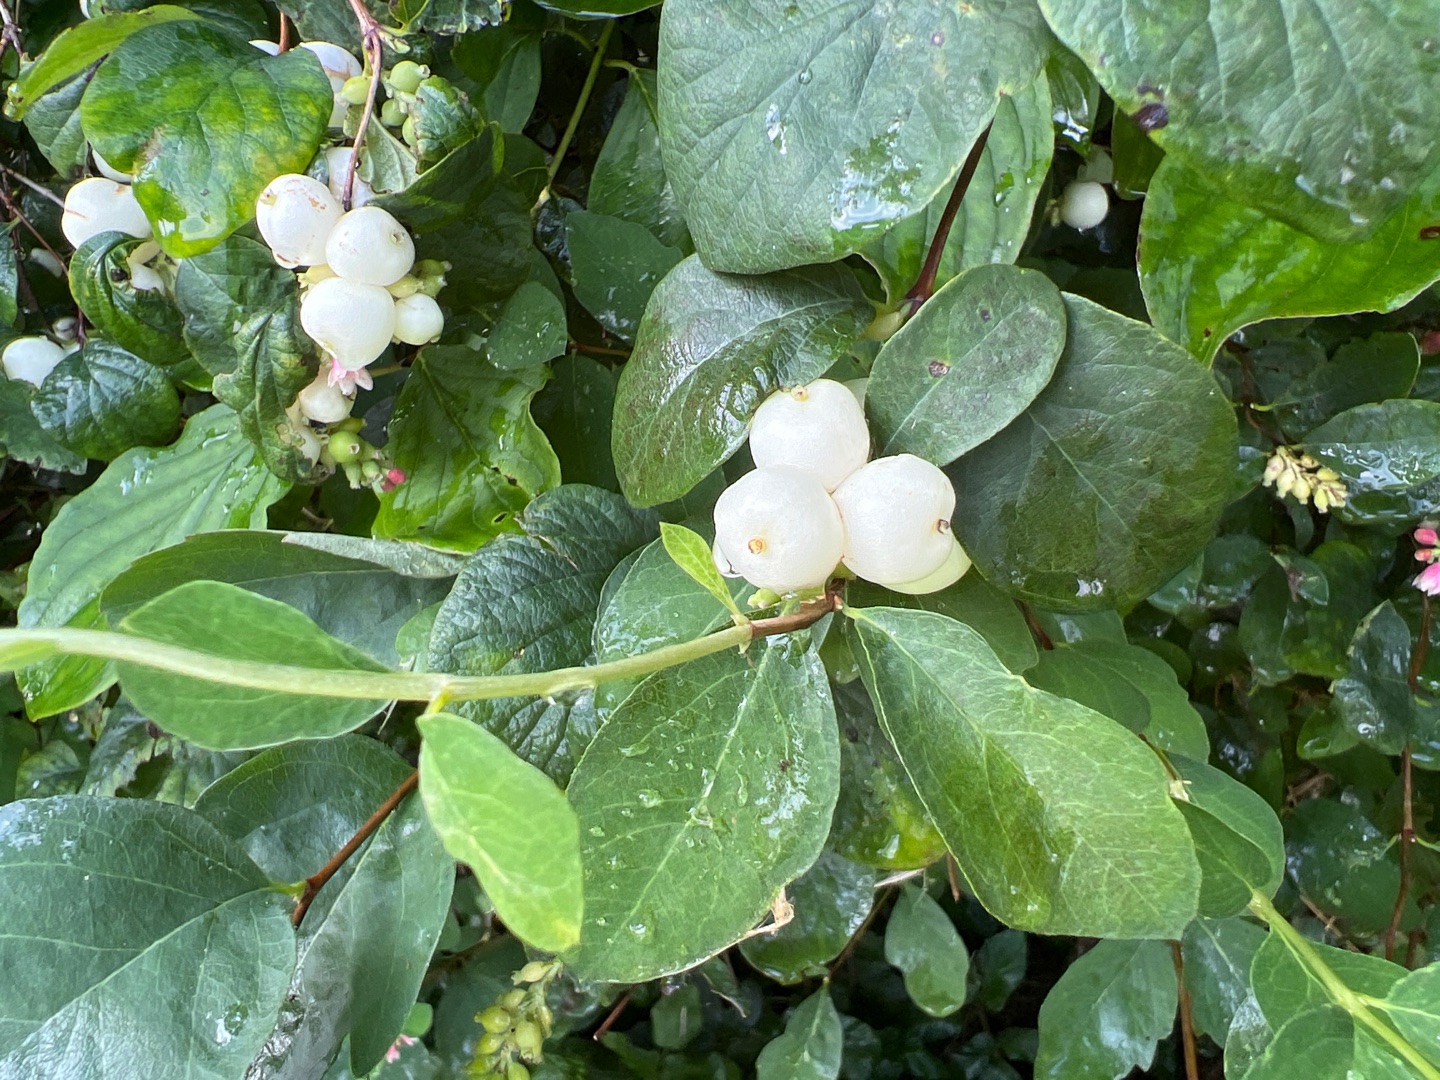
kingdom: Plantae
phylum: Tracheophyta
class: Magnoliopsida
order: Dipsacales
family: Caprifoliaceae
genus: Symphoricarpos
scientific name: Symphoricarpos albus
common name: Almindelig snebær
